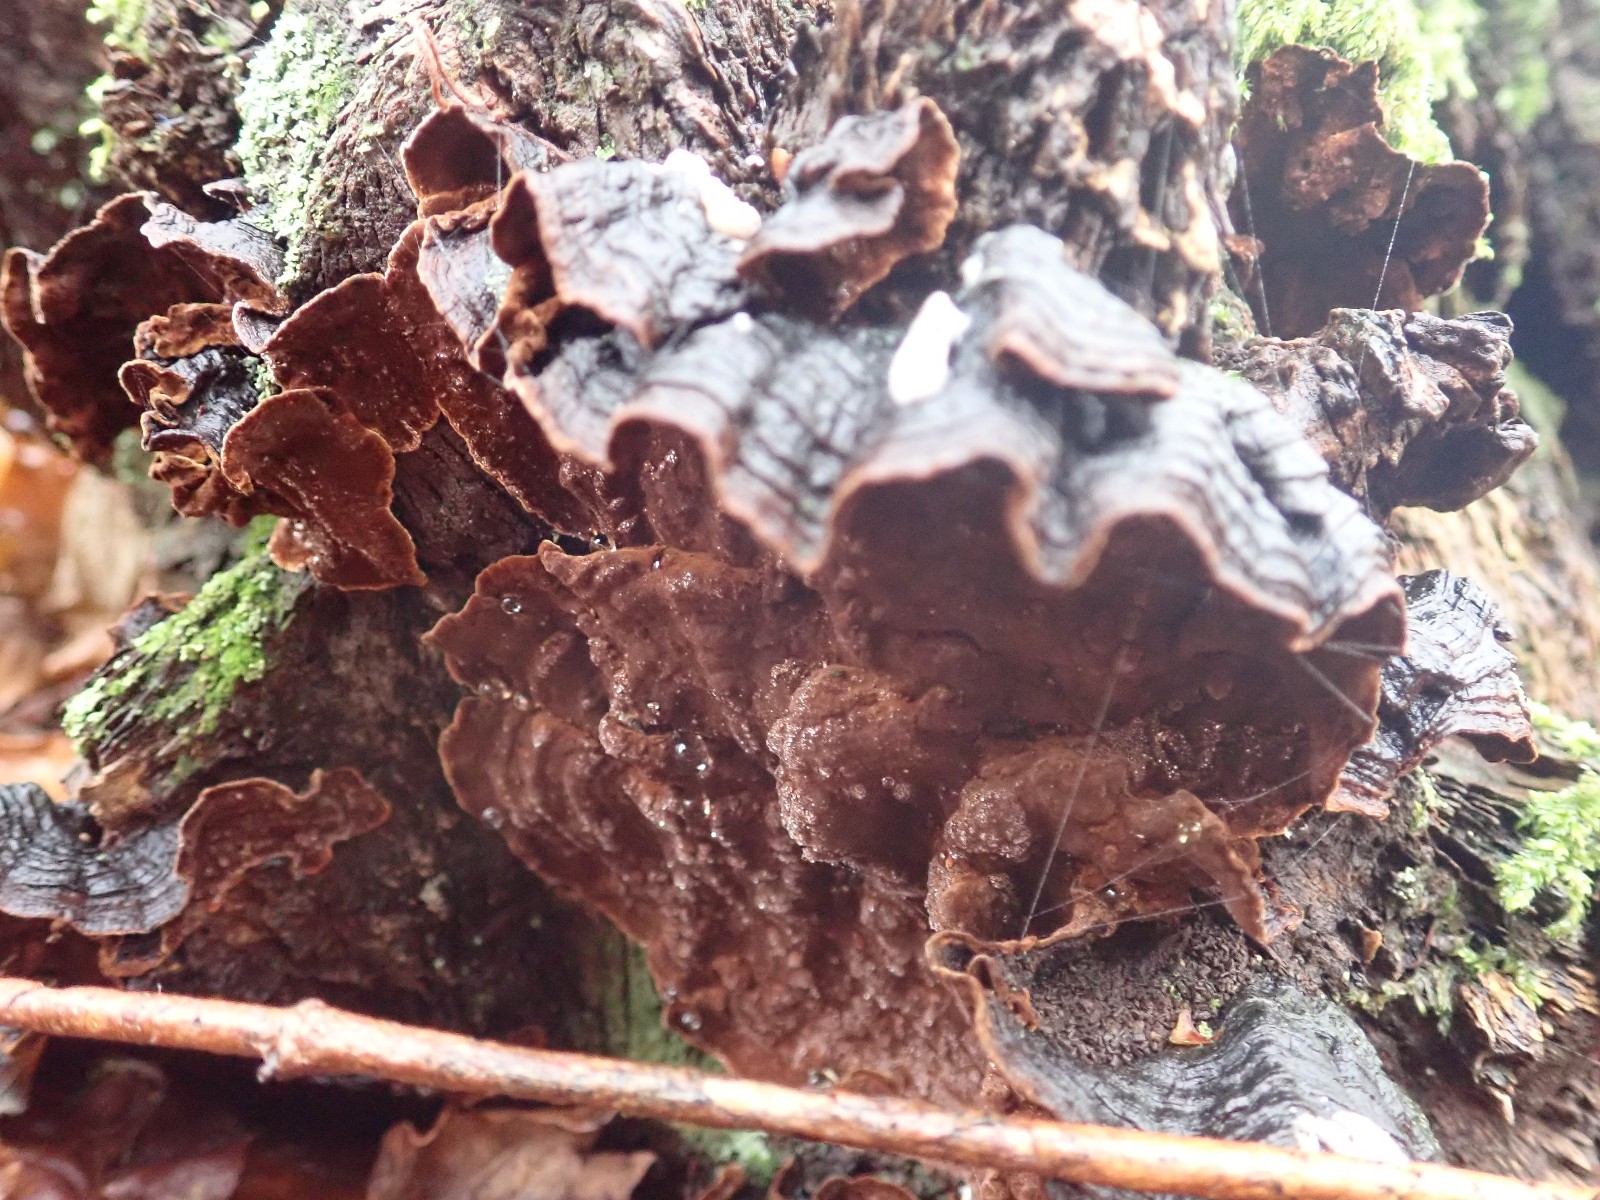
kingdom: Fungi
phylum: Basidiomycota
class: Agaricomycetes
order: Hymenochaetales
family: Hymenochaetaceae
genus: Hymenochaete
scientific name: Hymenochaete rubiginosa
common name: stiv ruslædersvamp
